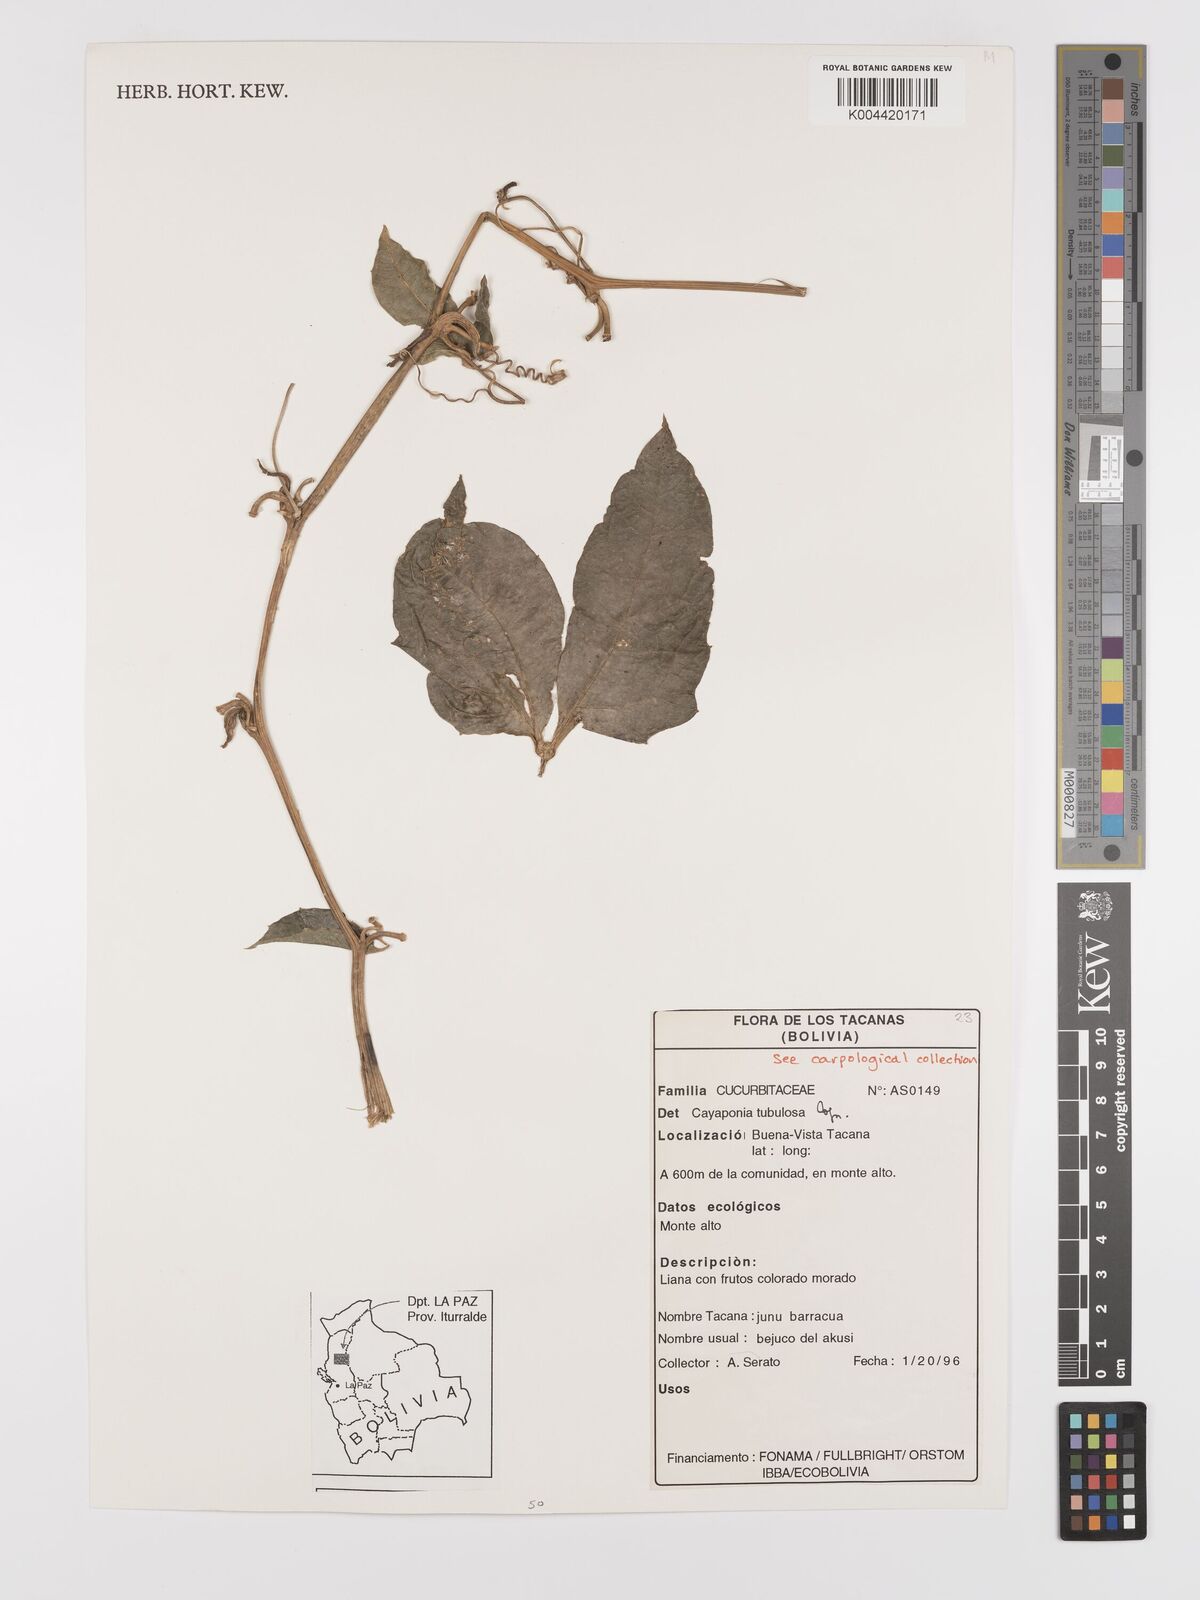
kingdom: Plantae
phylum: Tracheophyta
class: Magnoliopsida
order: Cucurbitales
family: Cucurbitaceae
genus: Cayaponia
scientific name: Cayaponia tubulosa
